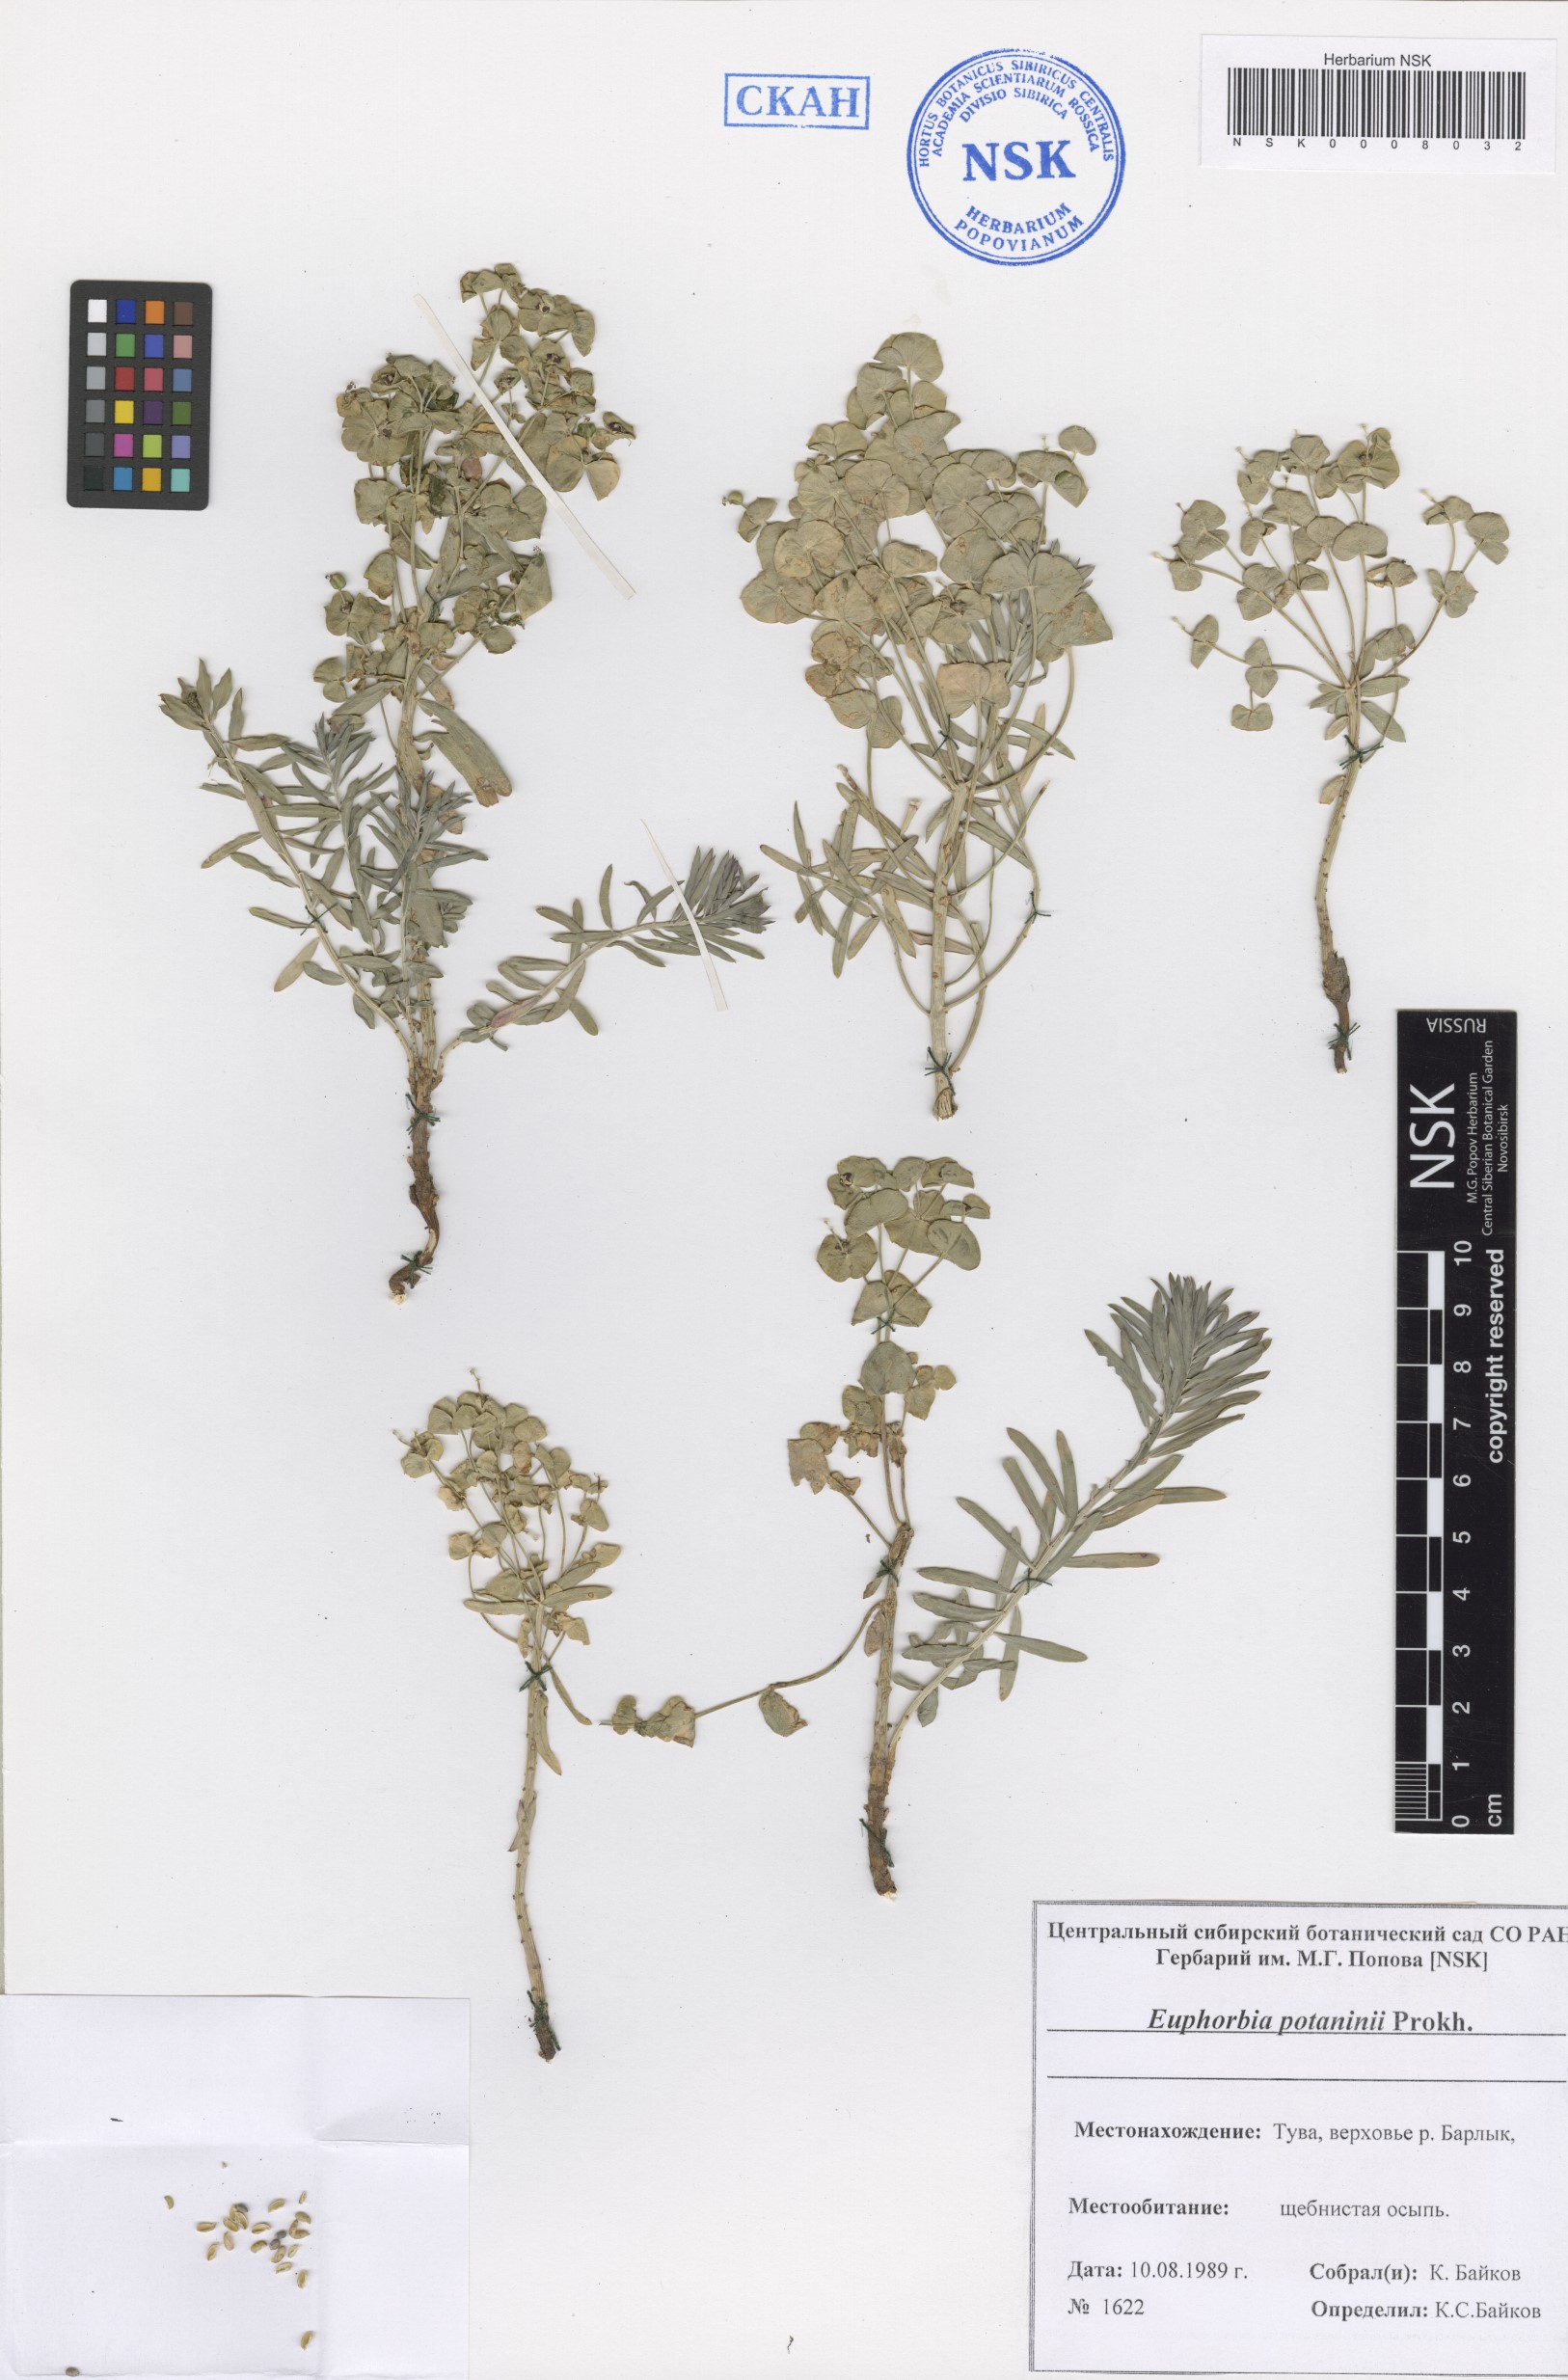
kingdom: Plantae
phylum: Tracheophyta
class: Magnoliopsida
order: Malpighiales
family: Euphorbiaceae
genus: Euphorbia
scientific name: Euphorbia potaninii
